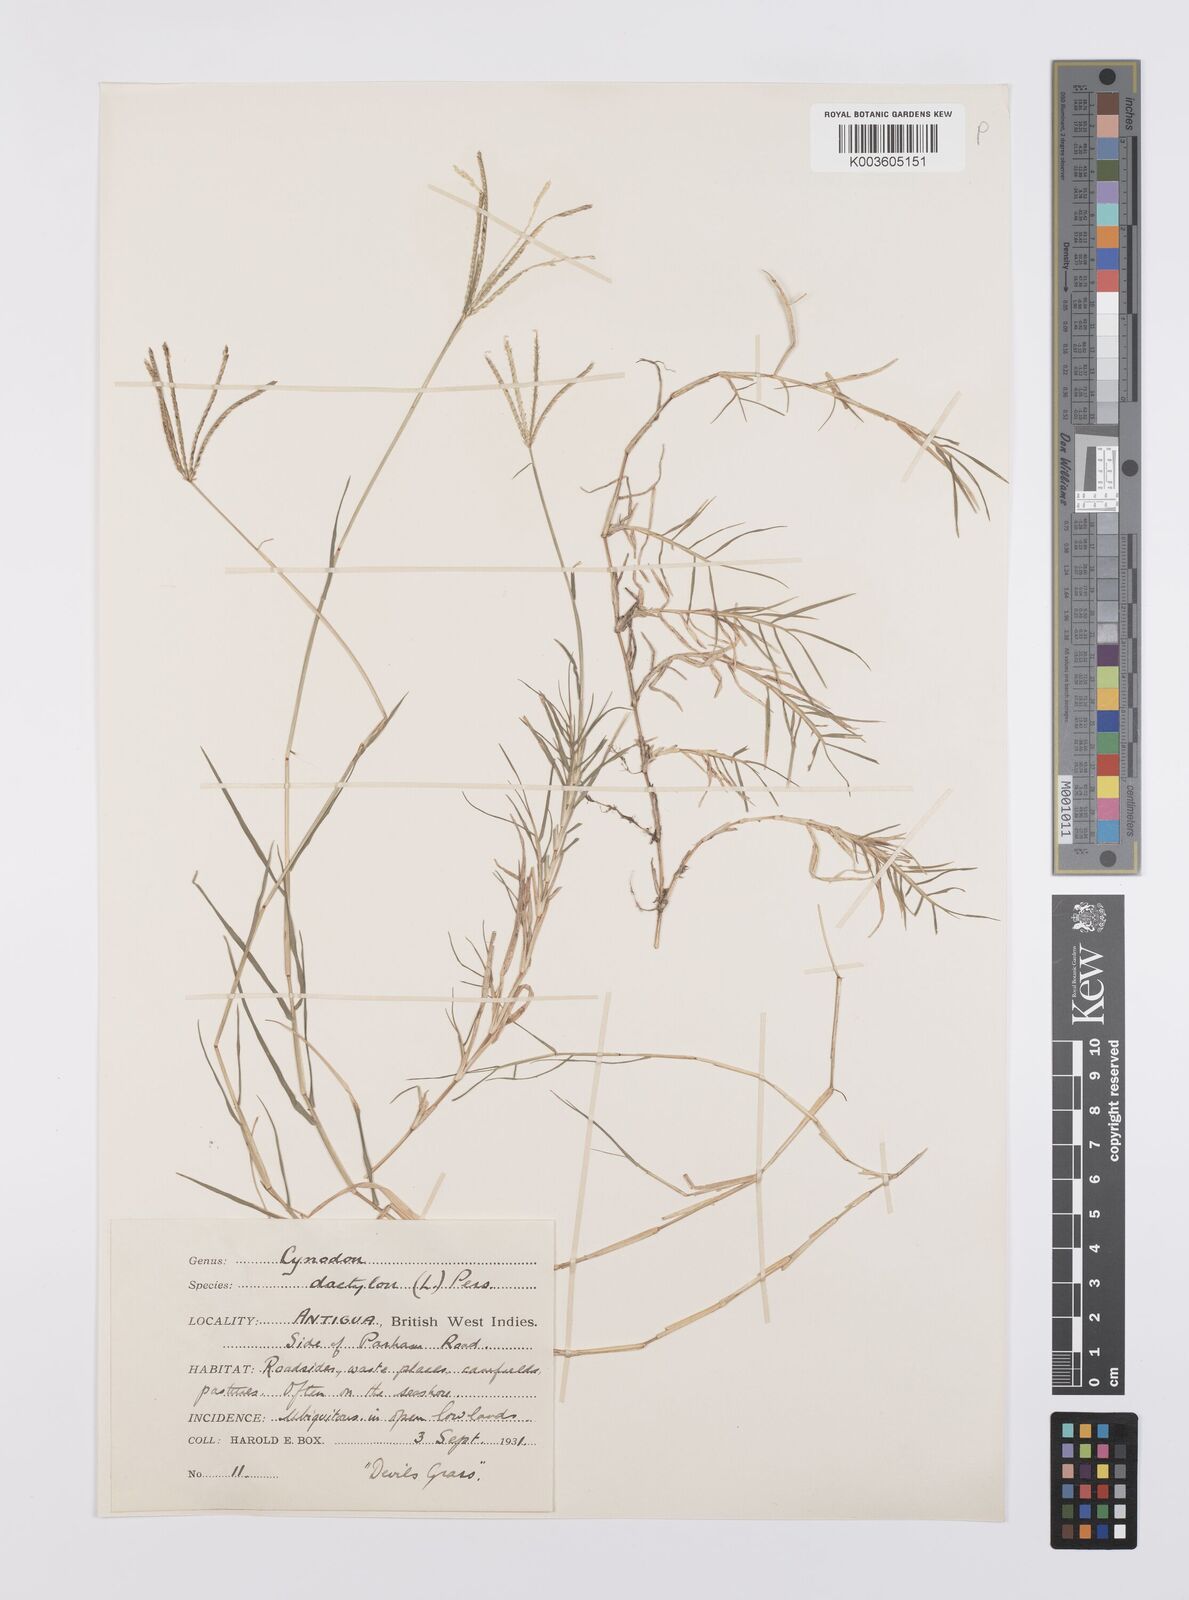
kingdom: Plantae
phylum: Tracheophyta
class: Liliopsida
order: Poales
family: Poaceae
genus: Cynodon
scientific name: Cynodon dactylon
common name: Bermuda grass
